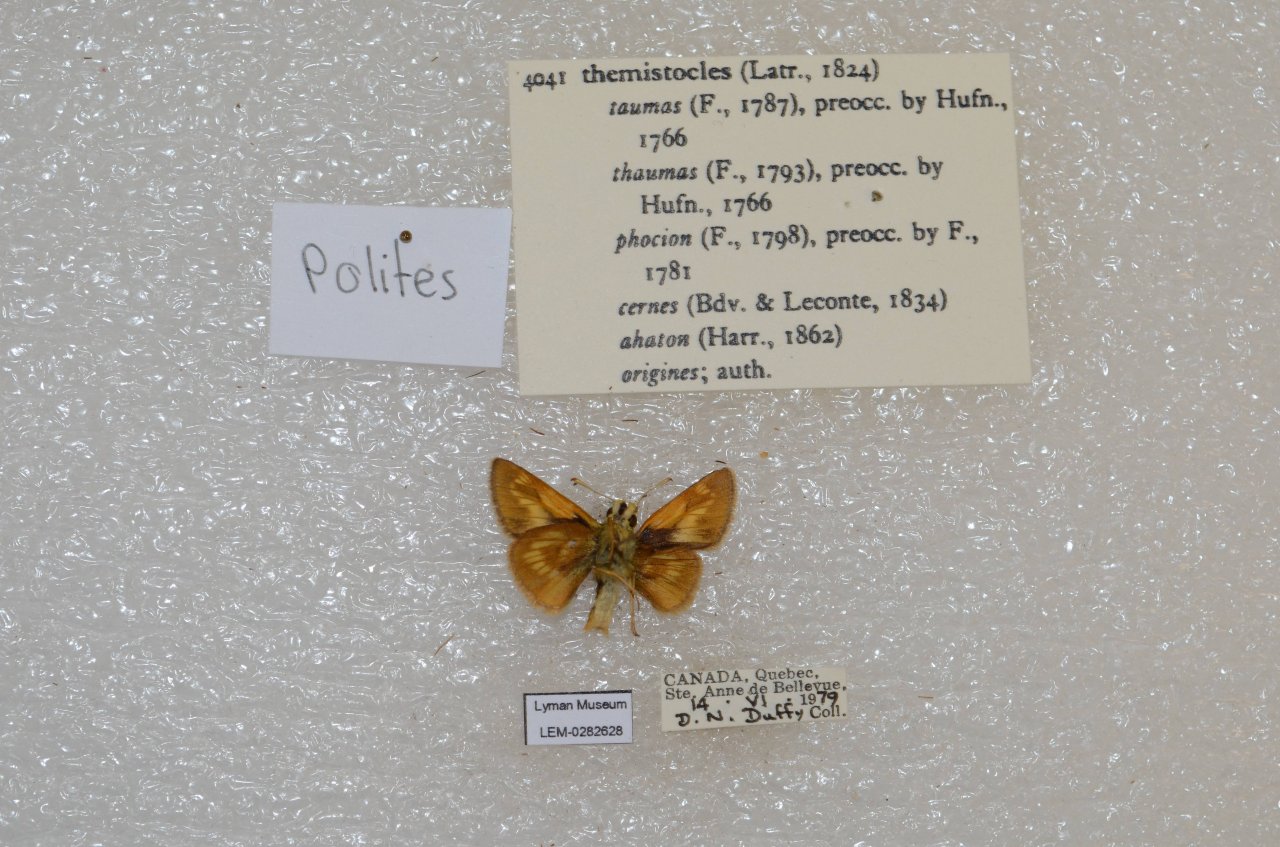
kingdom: Animalia
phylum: Arthropoda
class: Insecta
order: Lepidoptera
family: Hesperiidae
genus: Polites
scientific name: Polites themistocles
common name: Tawny-edged Skipper
